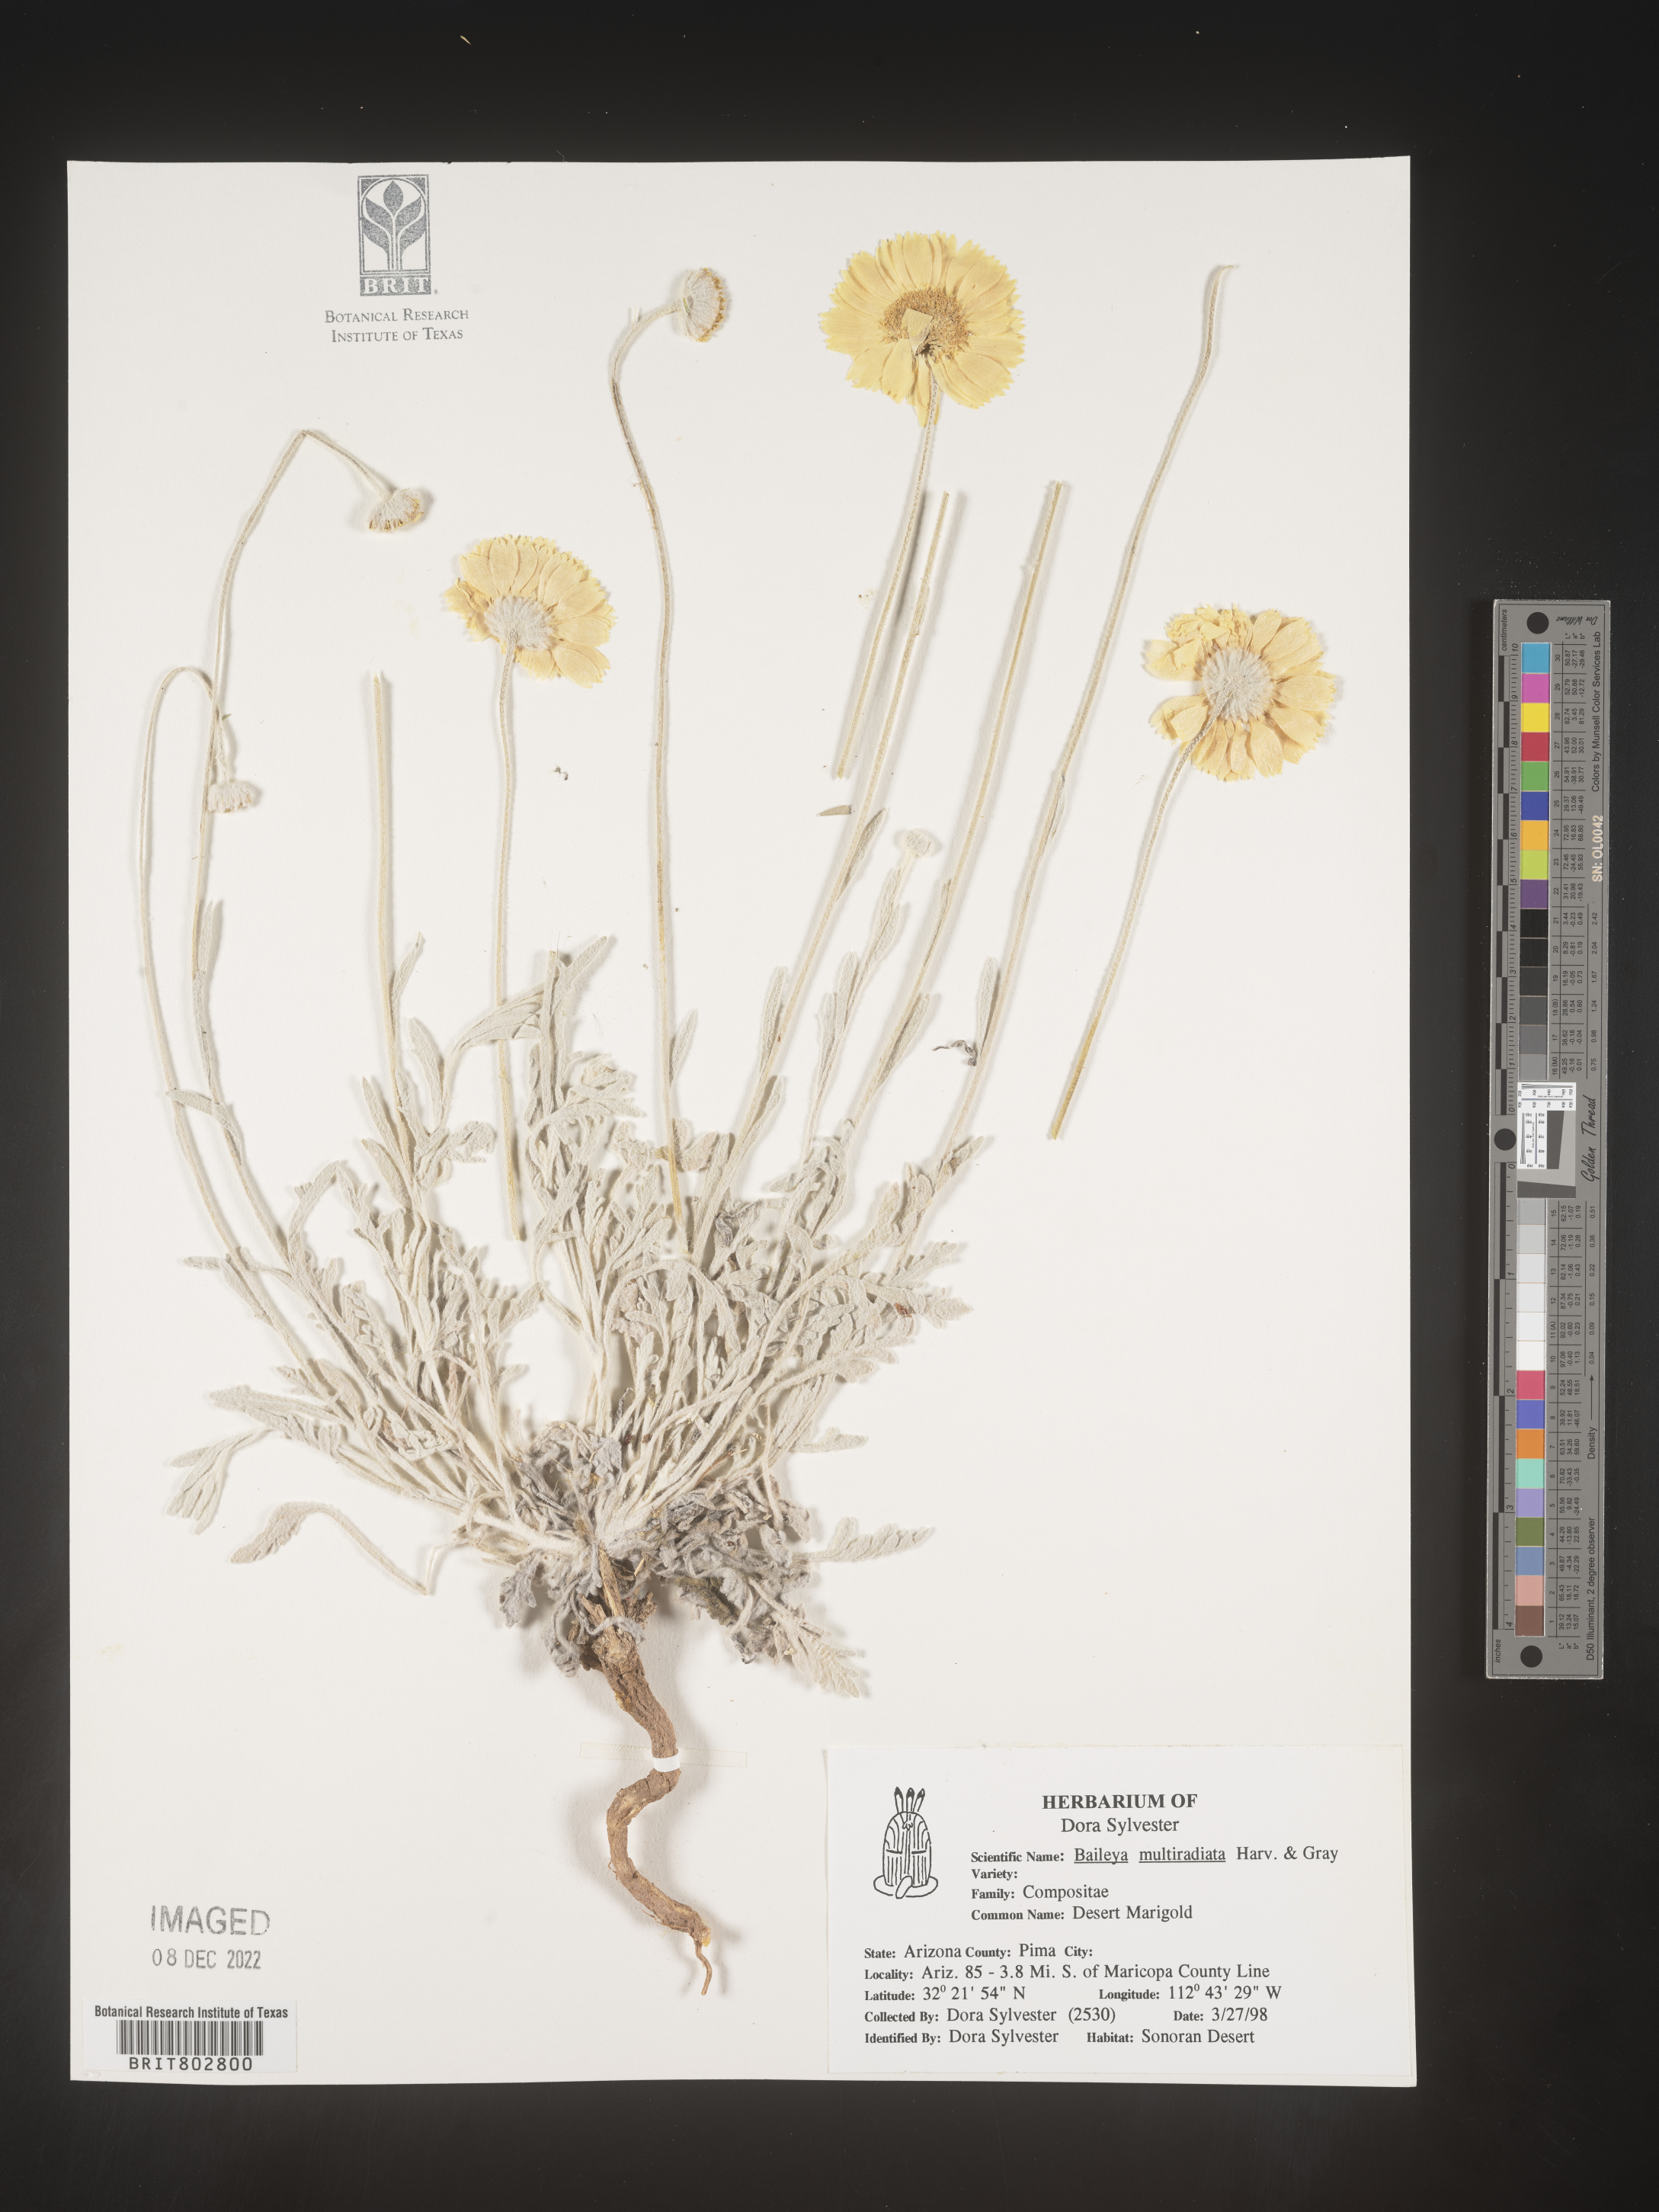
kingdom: Plantae
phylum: Tracheophyta
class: Magnoliopsida
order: Asterales
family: Asteraceae
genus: Baileya
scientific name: Baileya multiradiata
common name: Desert-marigold
